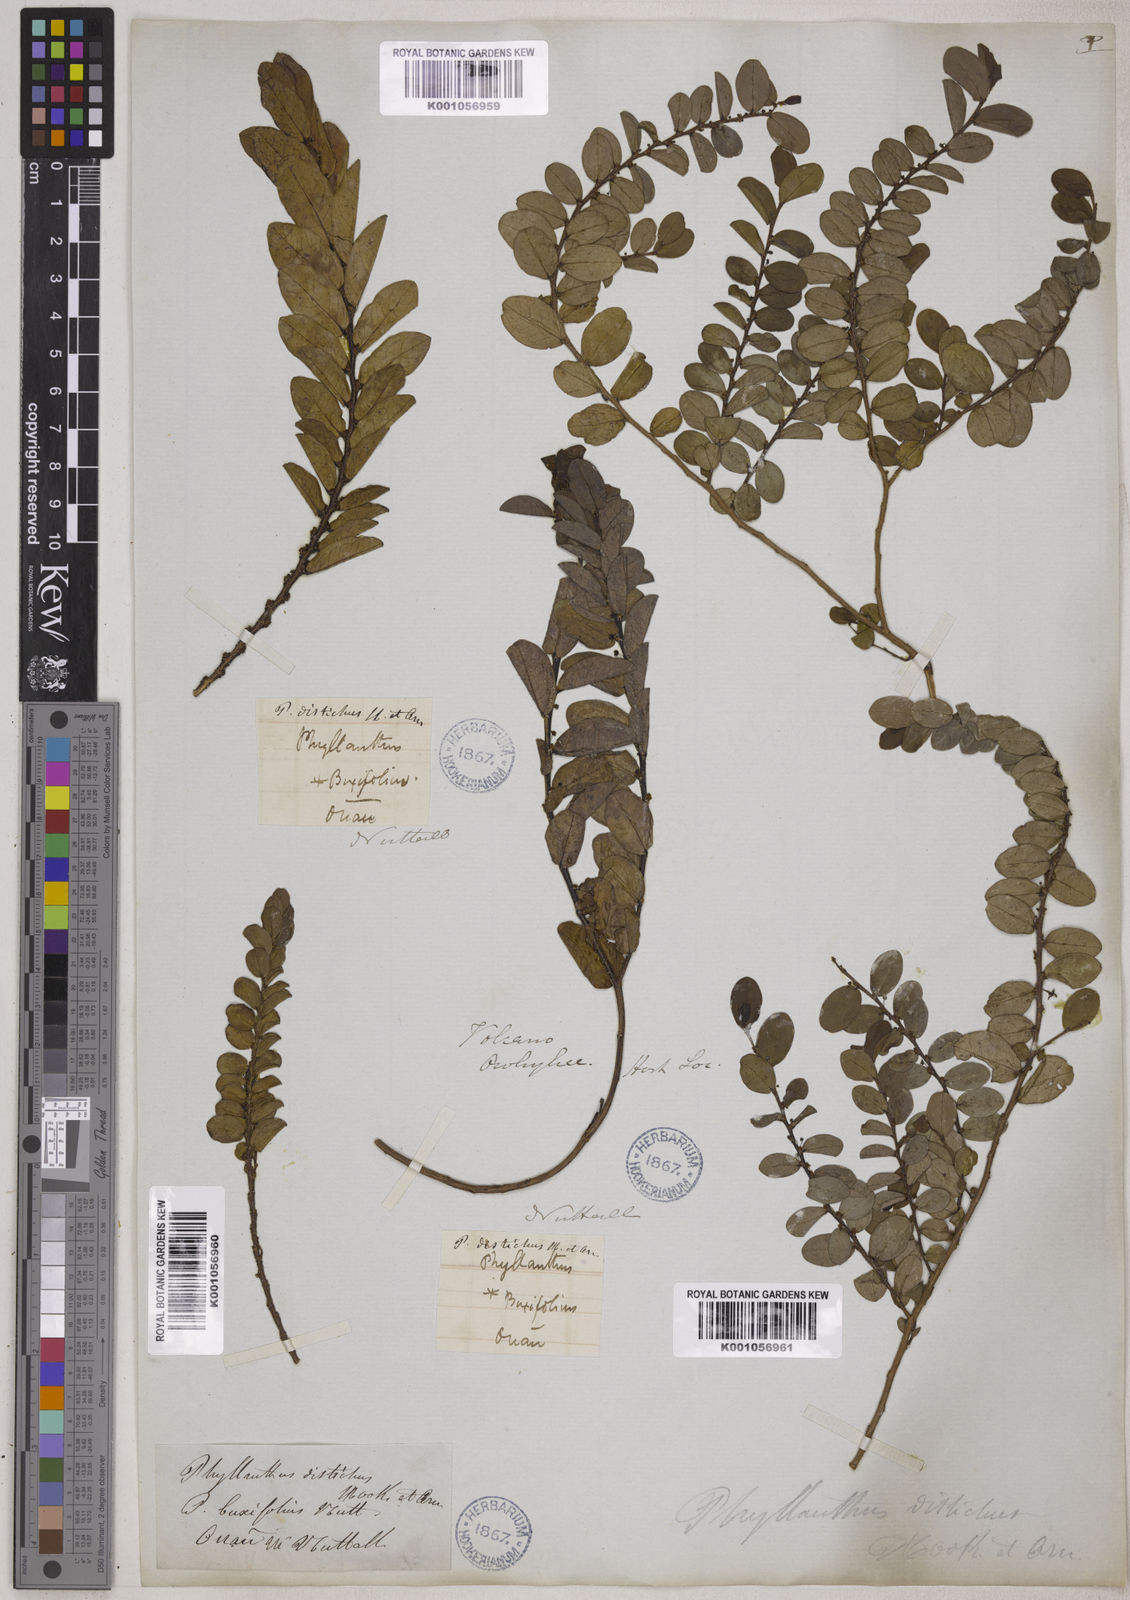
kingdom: Plantae
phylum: Tracheophyta
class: Magnoliopsida
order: Malpighiales
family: Phyllanthaceae
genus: Phyllanthus
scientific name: Phyllanthus distichus
